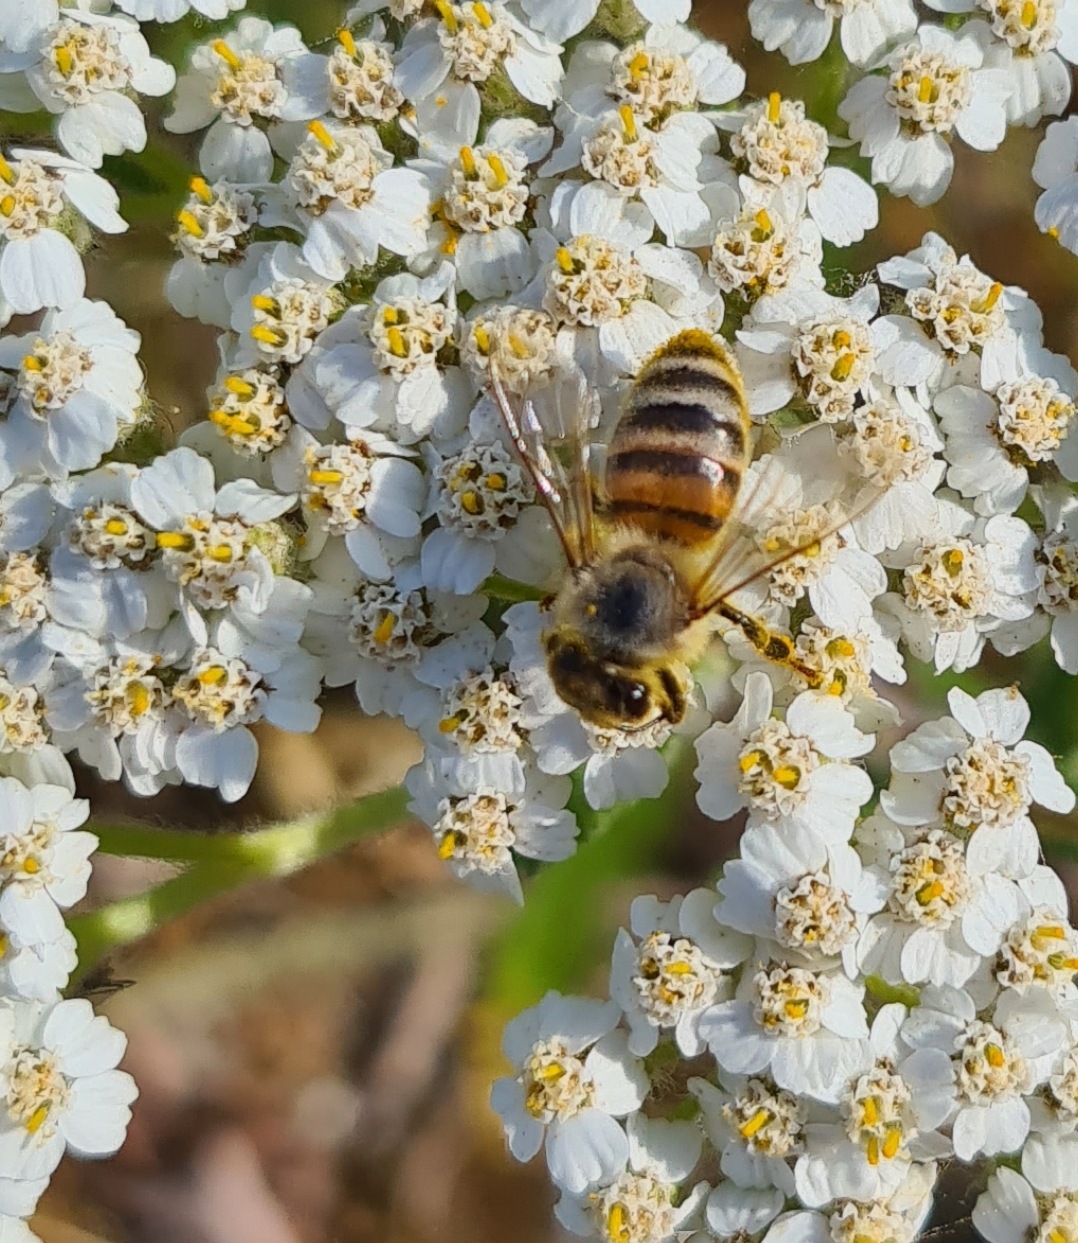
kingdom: Animalia
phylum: Arthropoda
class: Insecta
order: Hymenoptera
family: Apidae
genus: Apis
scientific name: Apis mellifera
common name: Honningbi
